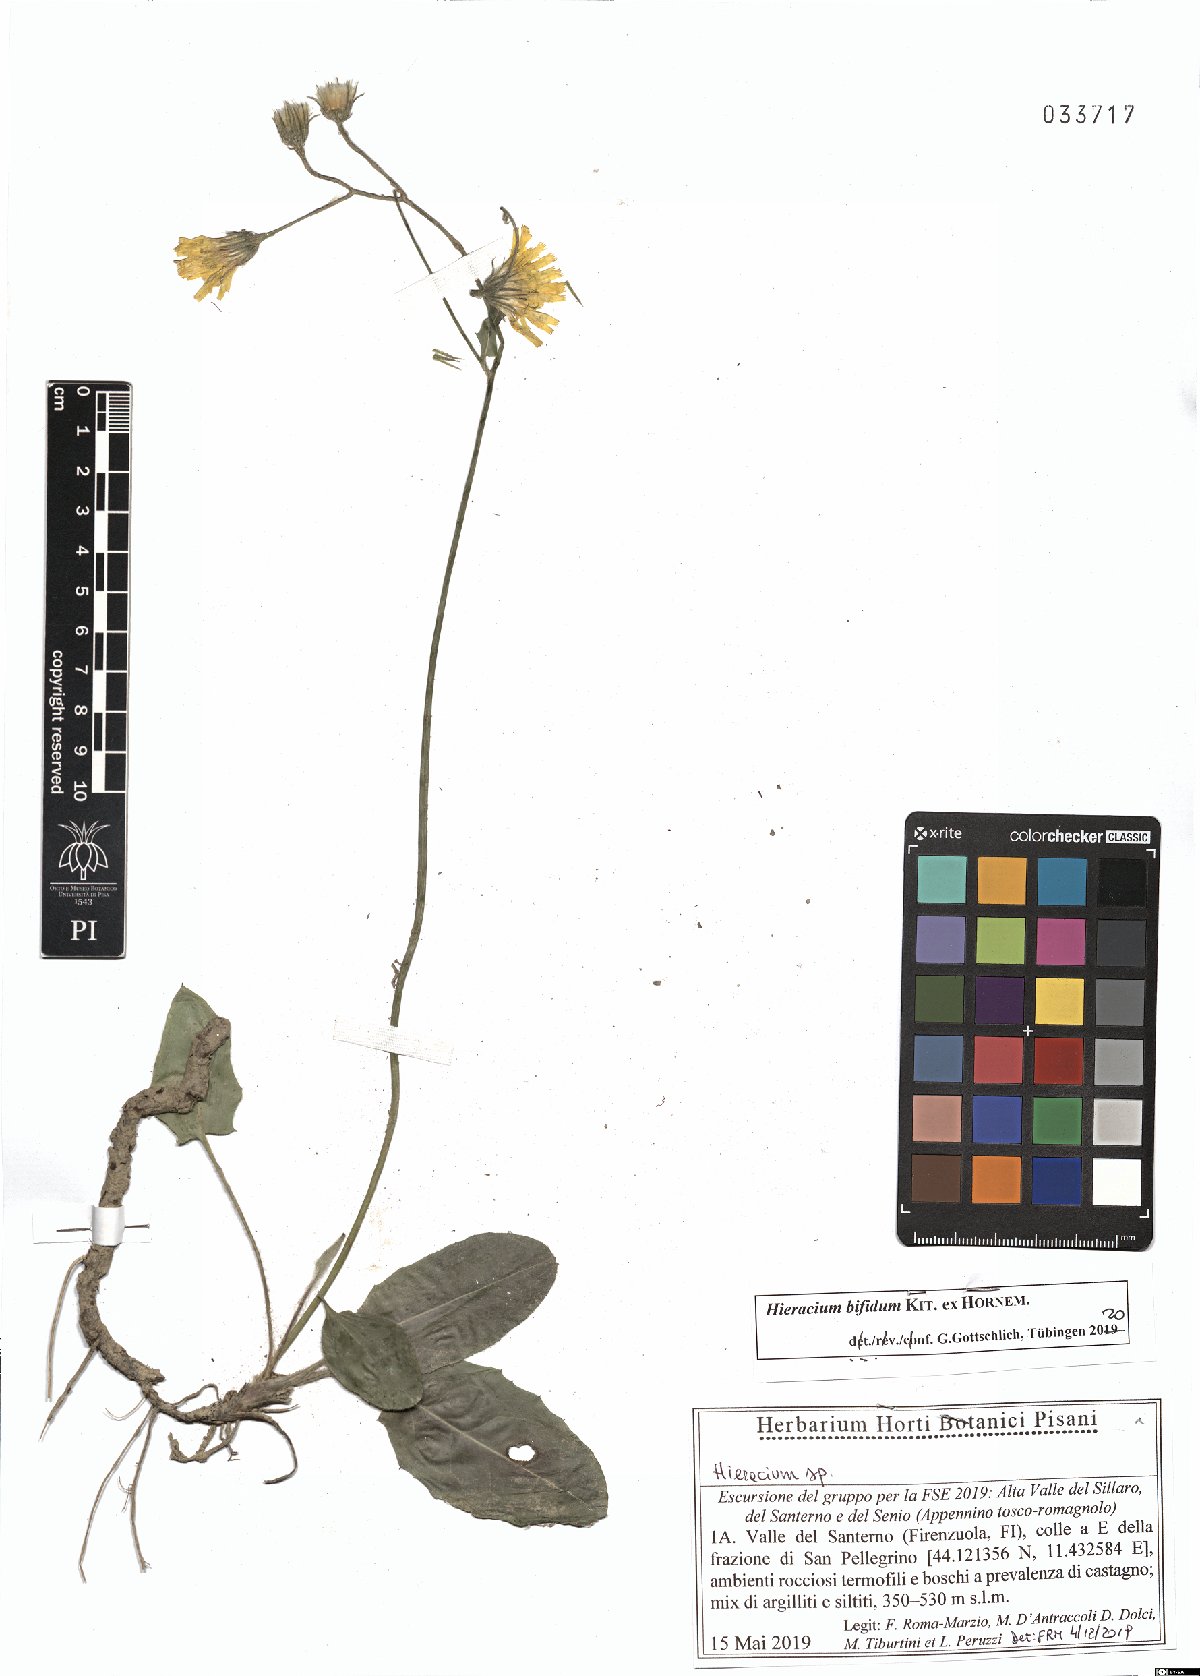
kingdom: Plantae
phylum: Tracheophyta
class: Magnoliopsida
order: Asterales
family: Asteraceae
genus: Hieracium
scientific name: Hieracium bifidum
